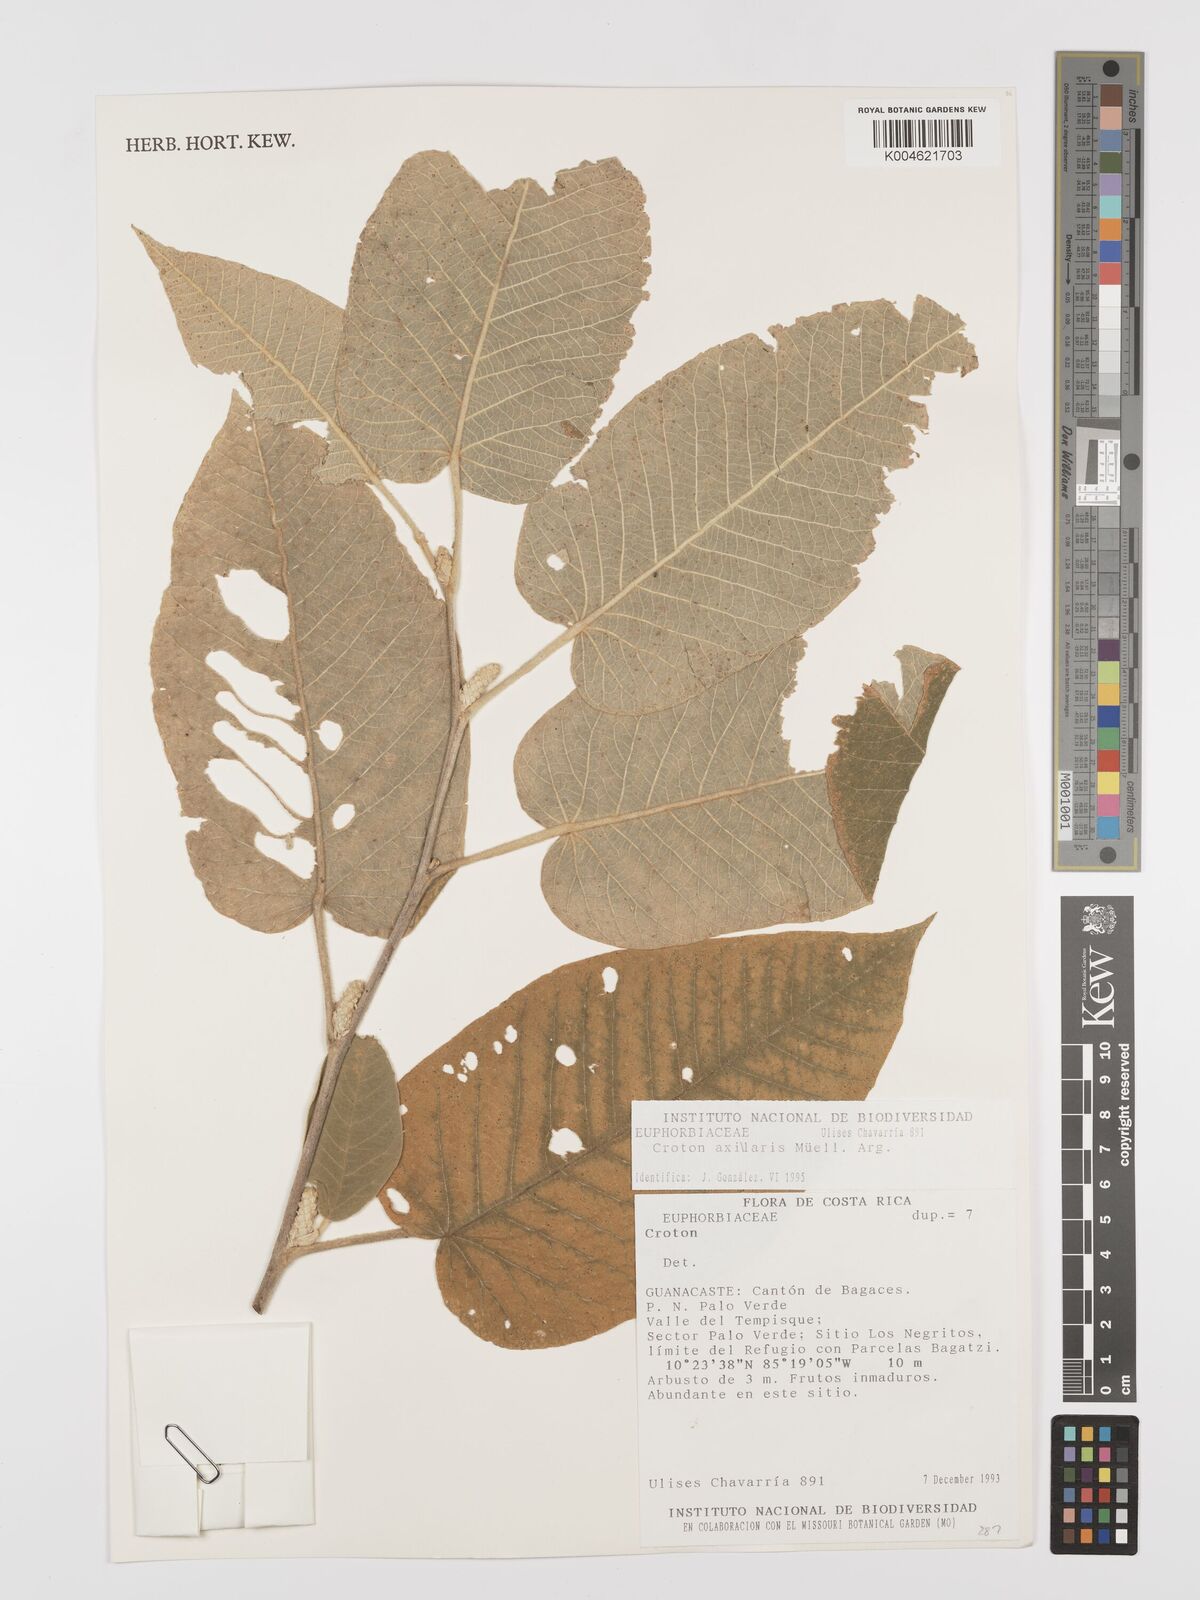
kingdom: Plantae
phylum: Tracheophyta
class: Magnoliopsida
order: Malpighiales
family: Euphorbiaceae
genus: Croton
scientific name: Croton axillaris
